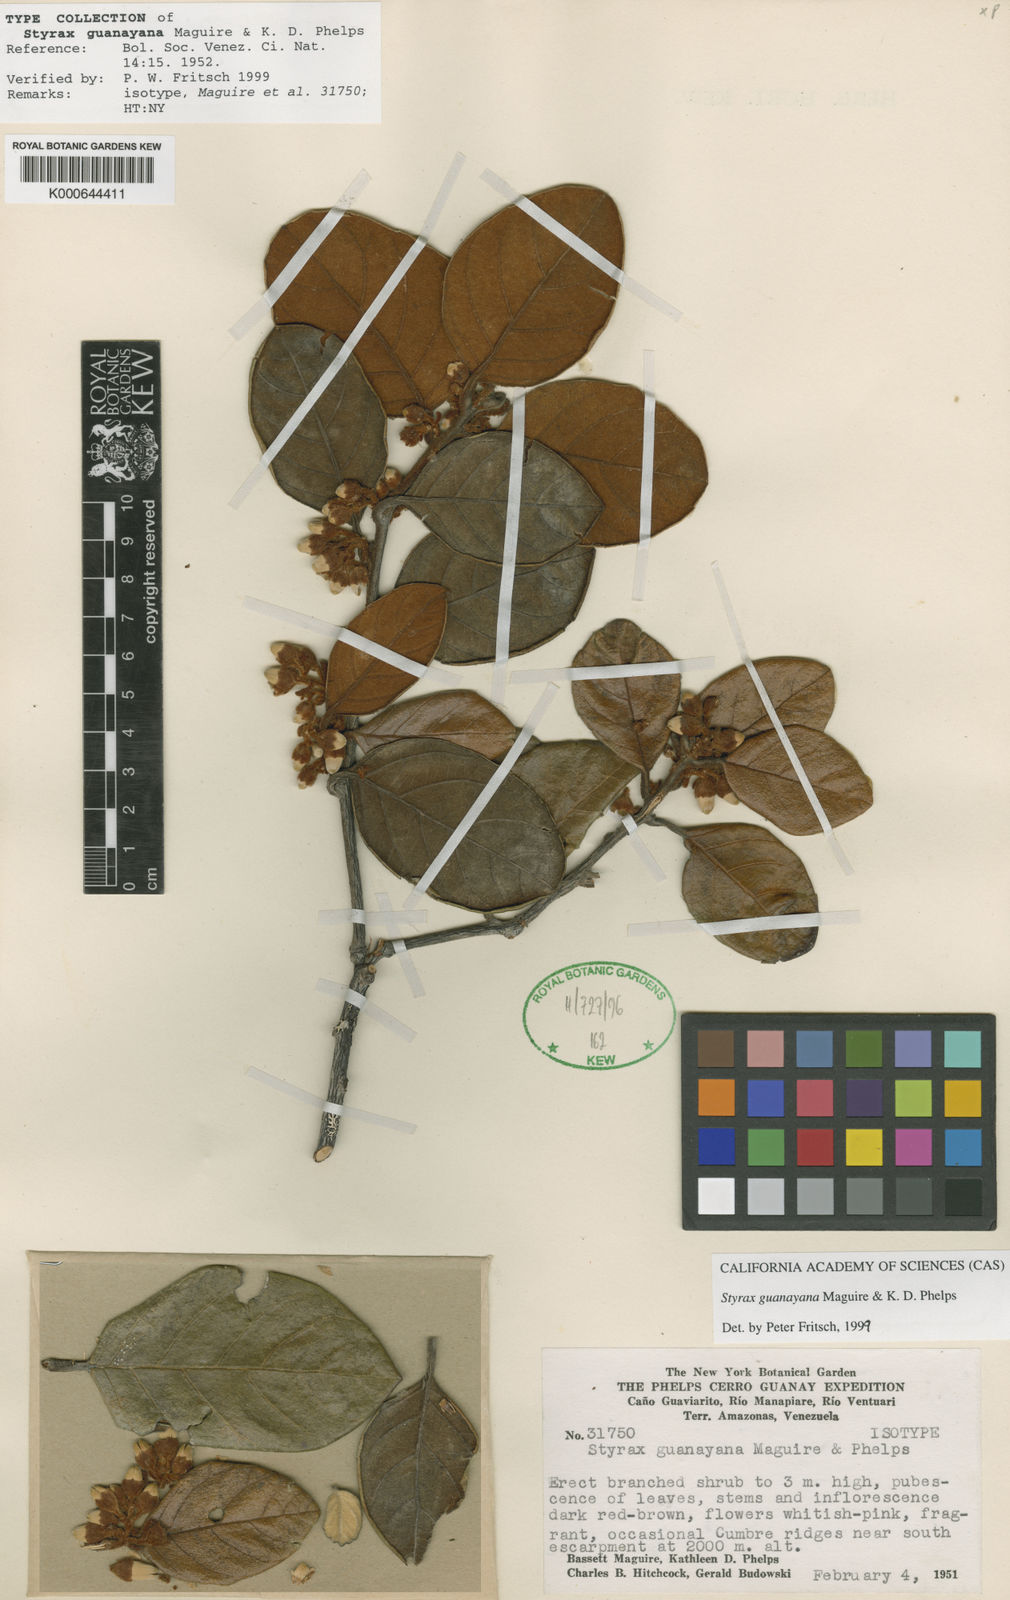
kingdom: Plantae
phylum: Tracheophyta
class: Magnoliopsida
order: Ericales
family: Styracaceae
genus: Styrax
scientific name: Styrax
